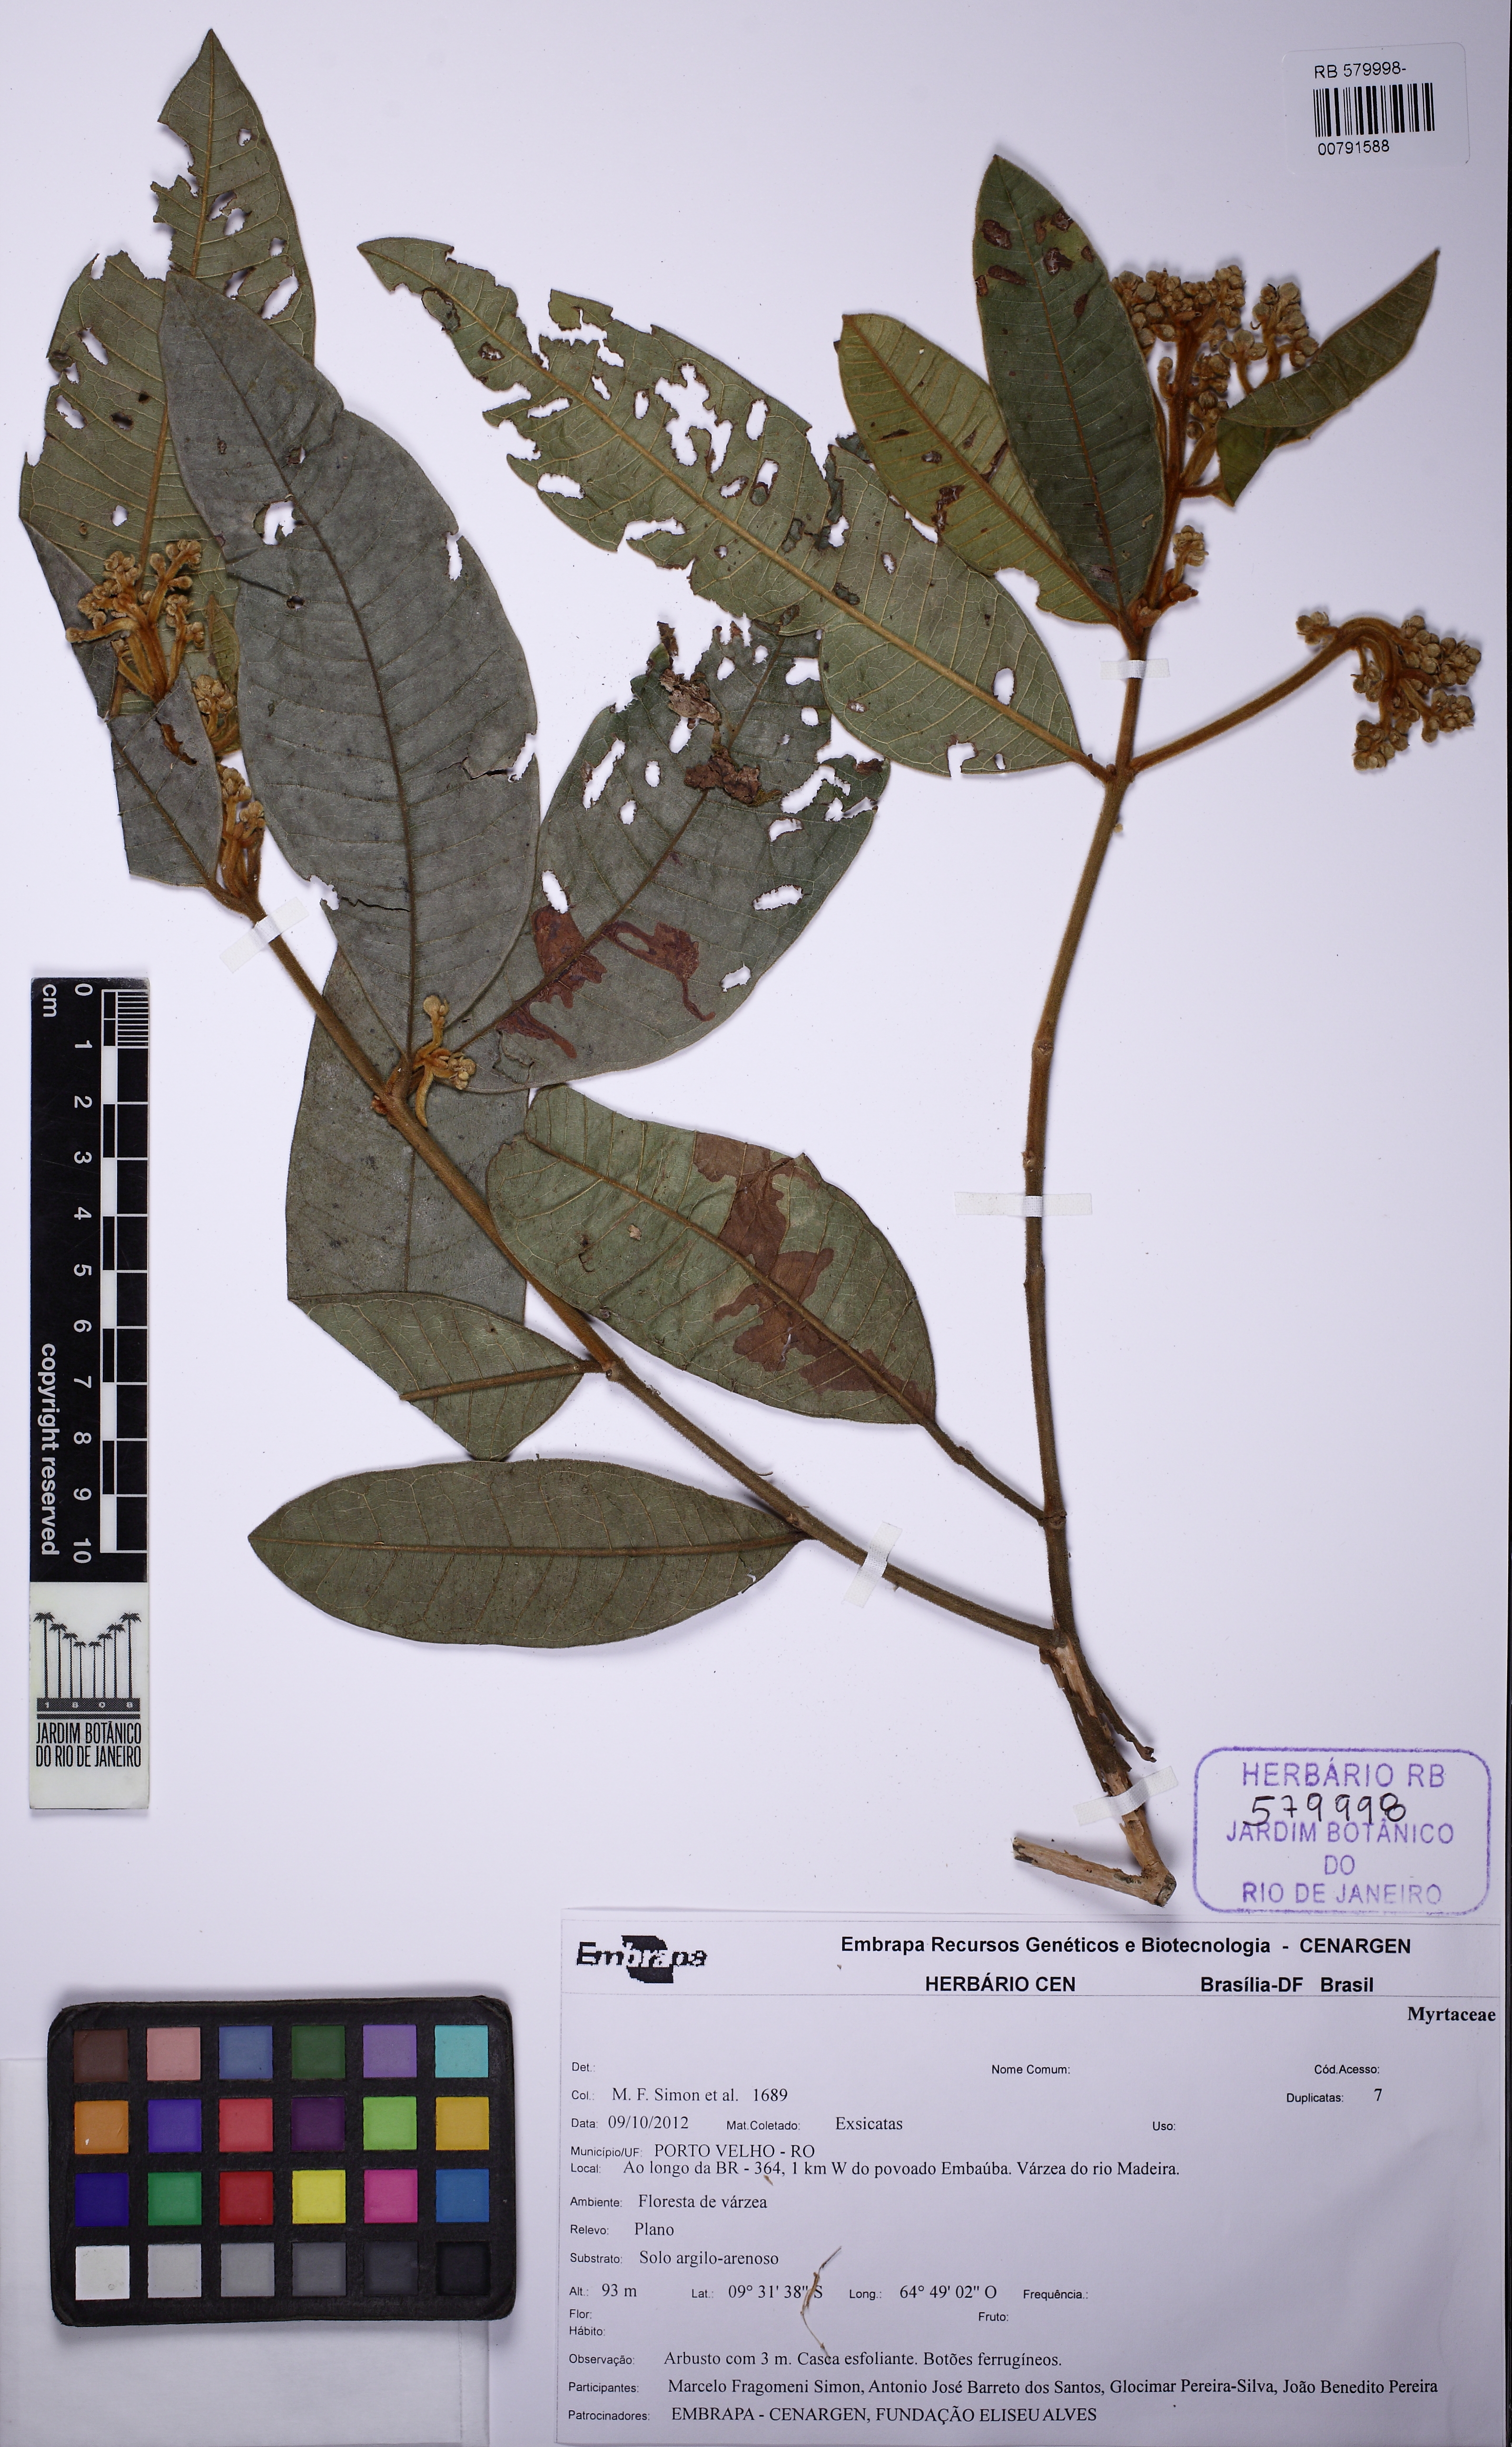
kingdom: Plantae
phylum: Tracheophyta
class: Magnoliopsida
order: Myrtales
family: Myrtaceae
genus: Myrcia
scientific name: Myrcia neovelutina
